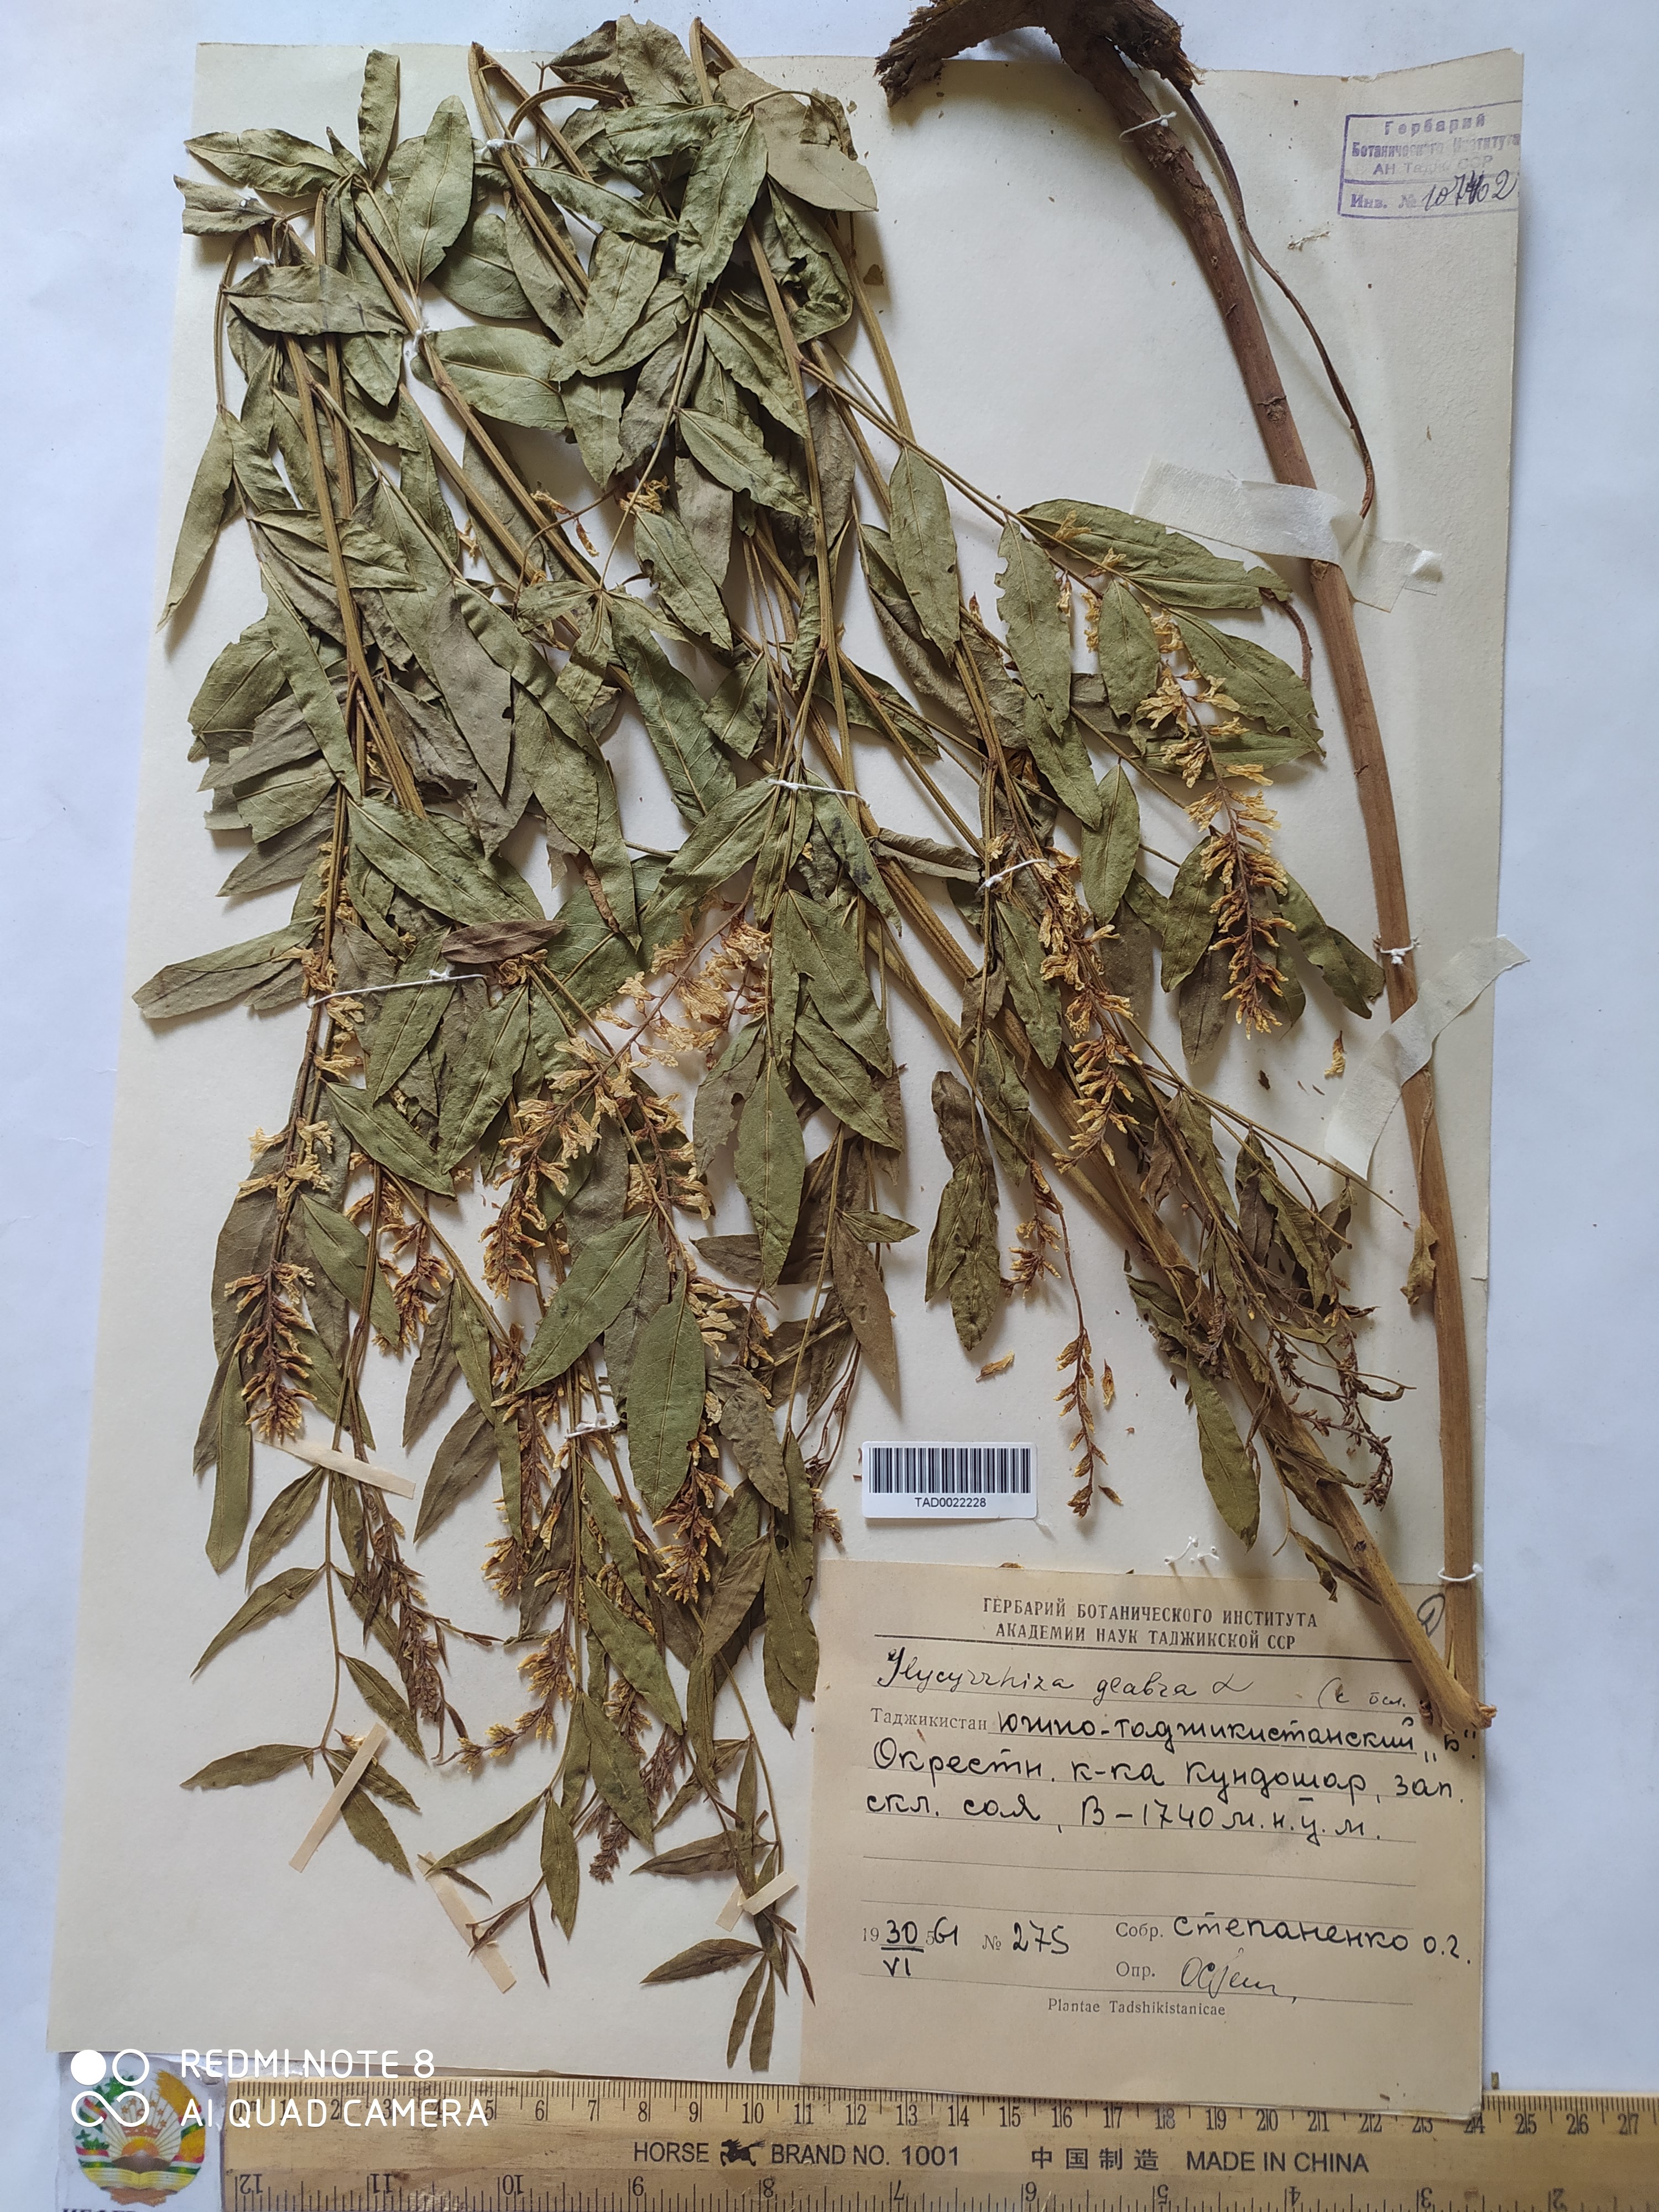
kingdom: Plantae
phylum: Tracheophyta
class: Magnoliopsida
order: Fabales
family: Fabaceae
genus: Glycyrrhiza
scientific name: Glycyrrhiza glabra
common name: Liquorice
